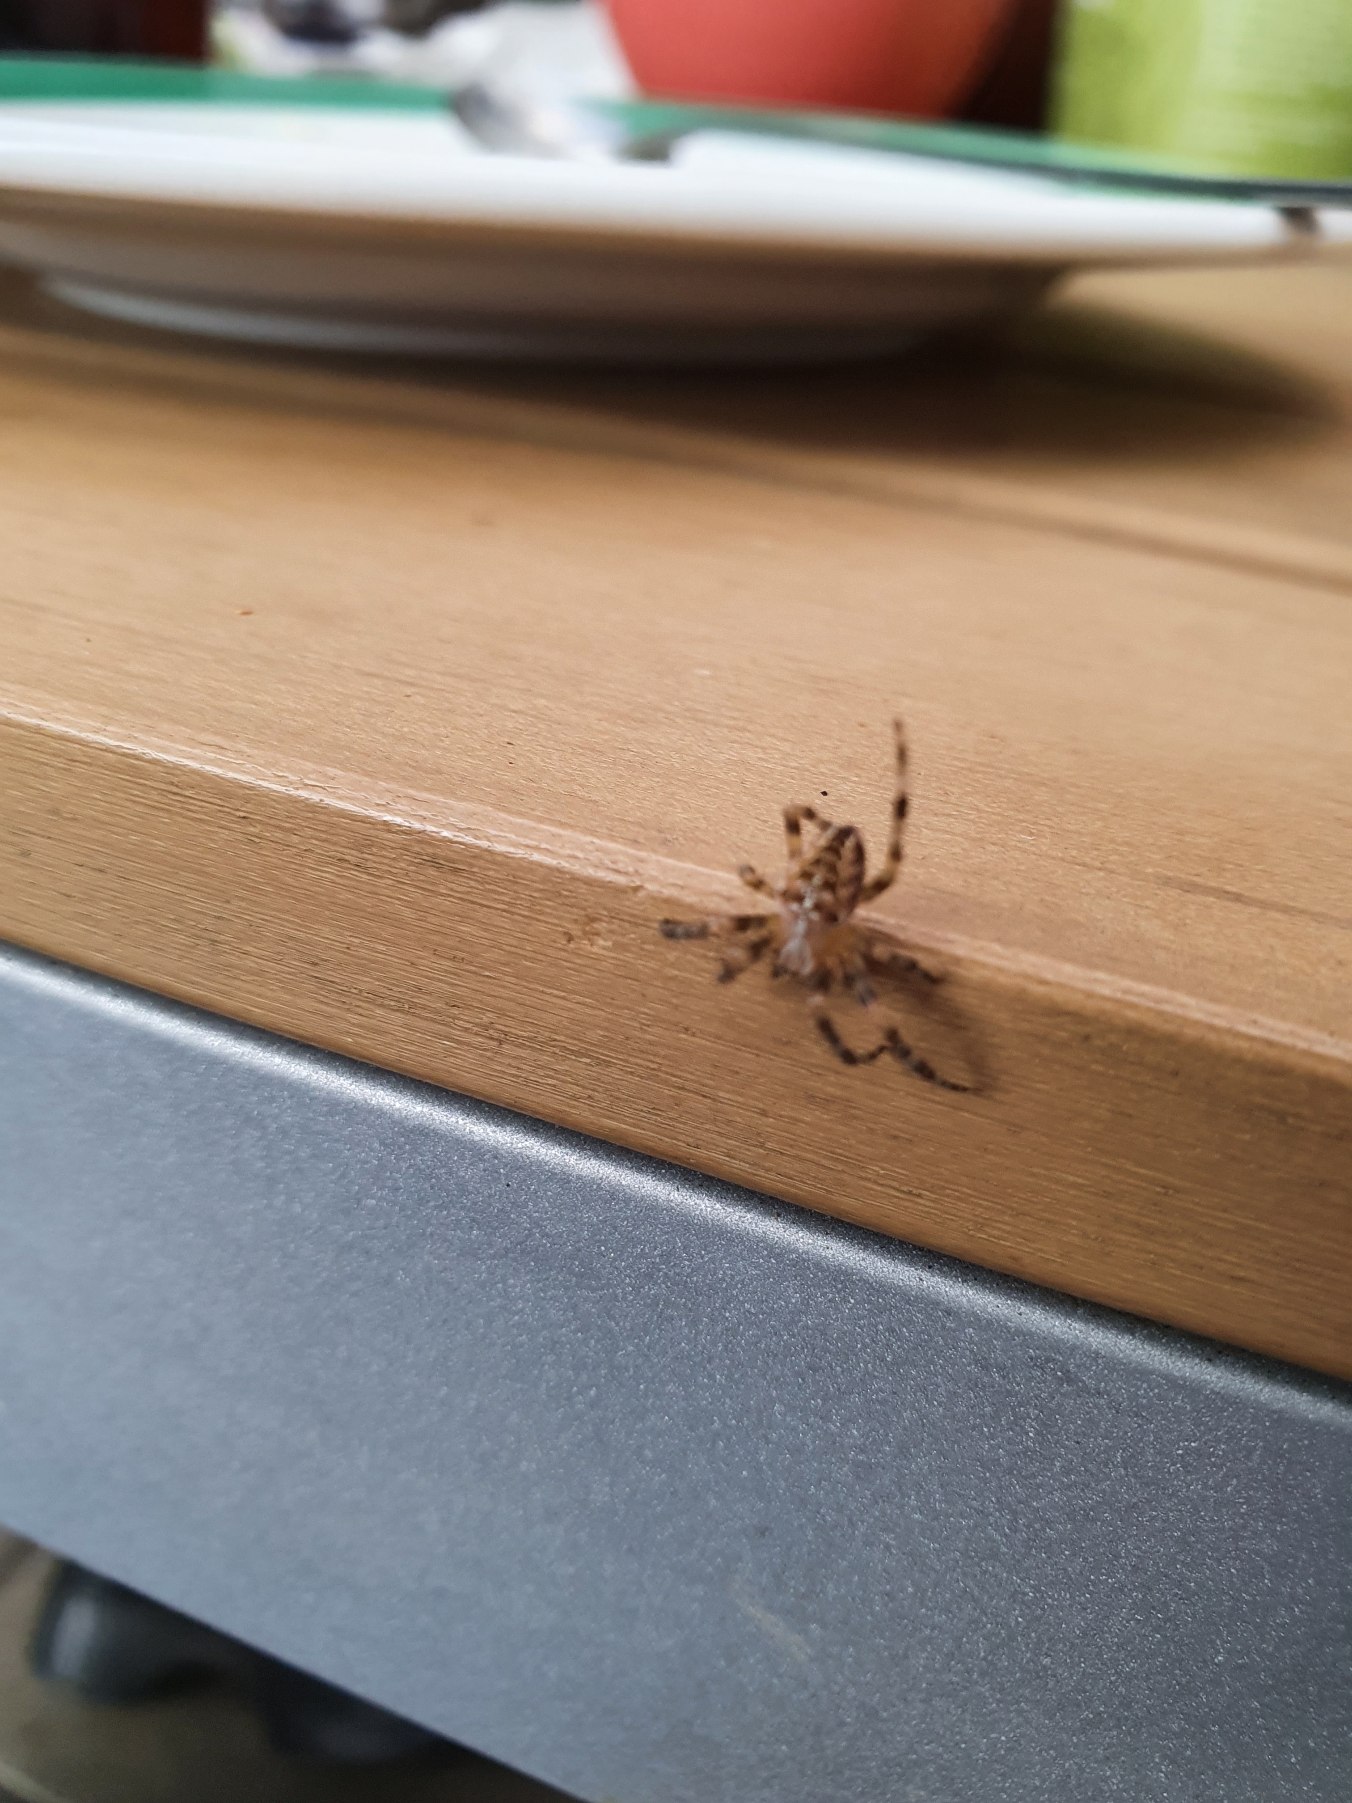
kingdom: Animalia
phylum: Arthropoda
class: Arachnida
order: Araneae
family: Araneidae
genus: Araneus
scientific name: Araneus diadematus
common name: Korsedderkop
